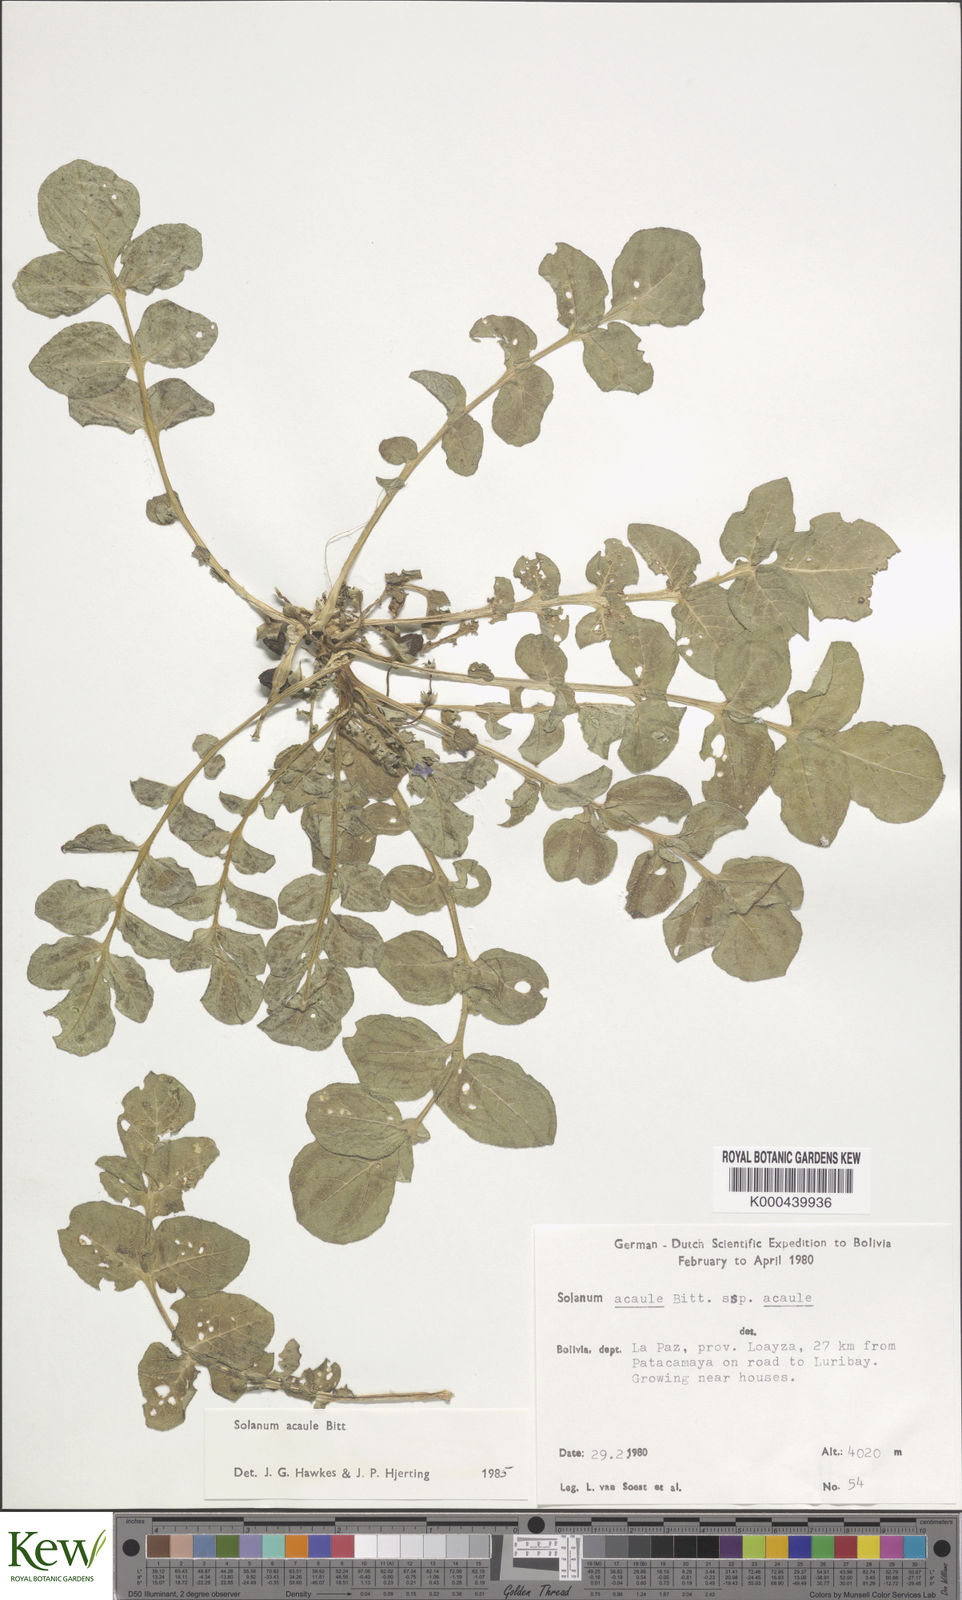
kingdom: Plantae
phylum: Tracheophyta
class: Magnoliopsida
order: Solanales
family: Solanaceae
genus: Solanum
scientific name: Solanum acaule
